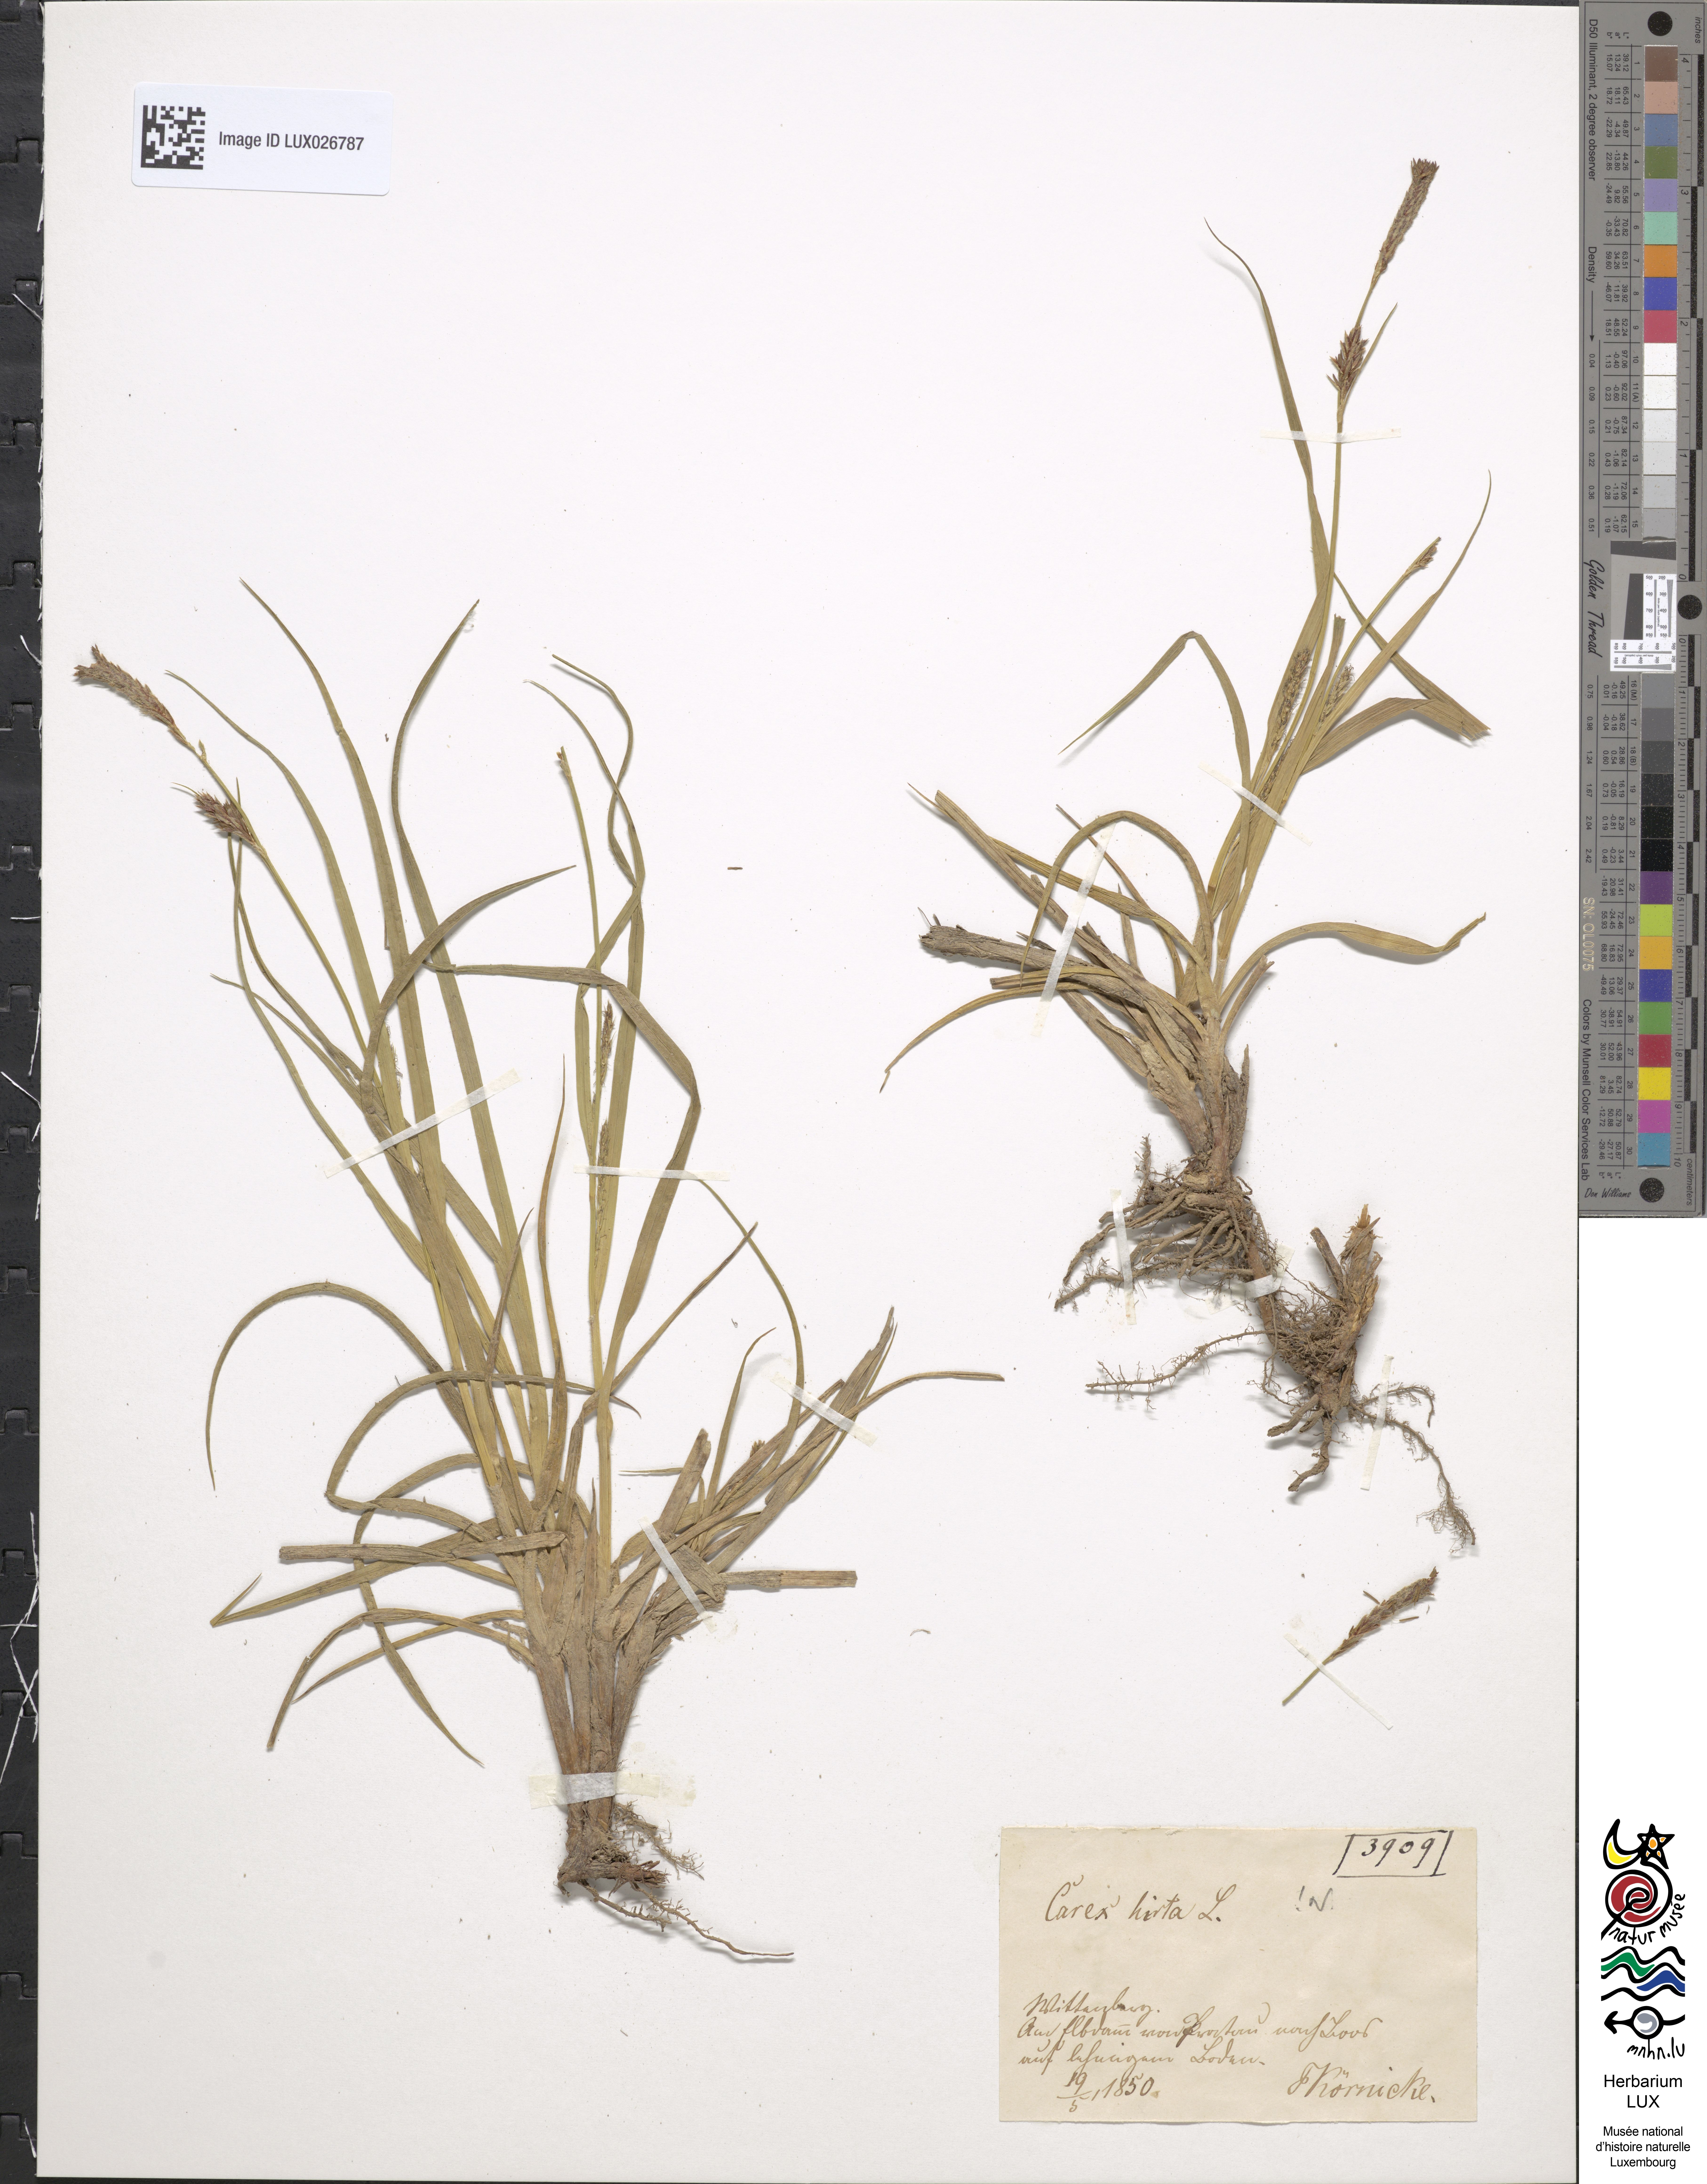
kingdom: Plantae
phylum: Tracheophyta
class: Liliopsida
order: Poales
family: Cyperaceae
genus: Carex
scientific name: Carex hirta
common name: Hairy sedge
